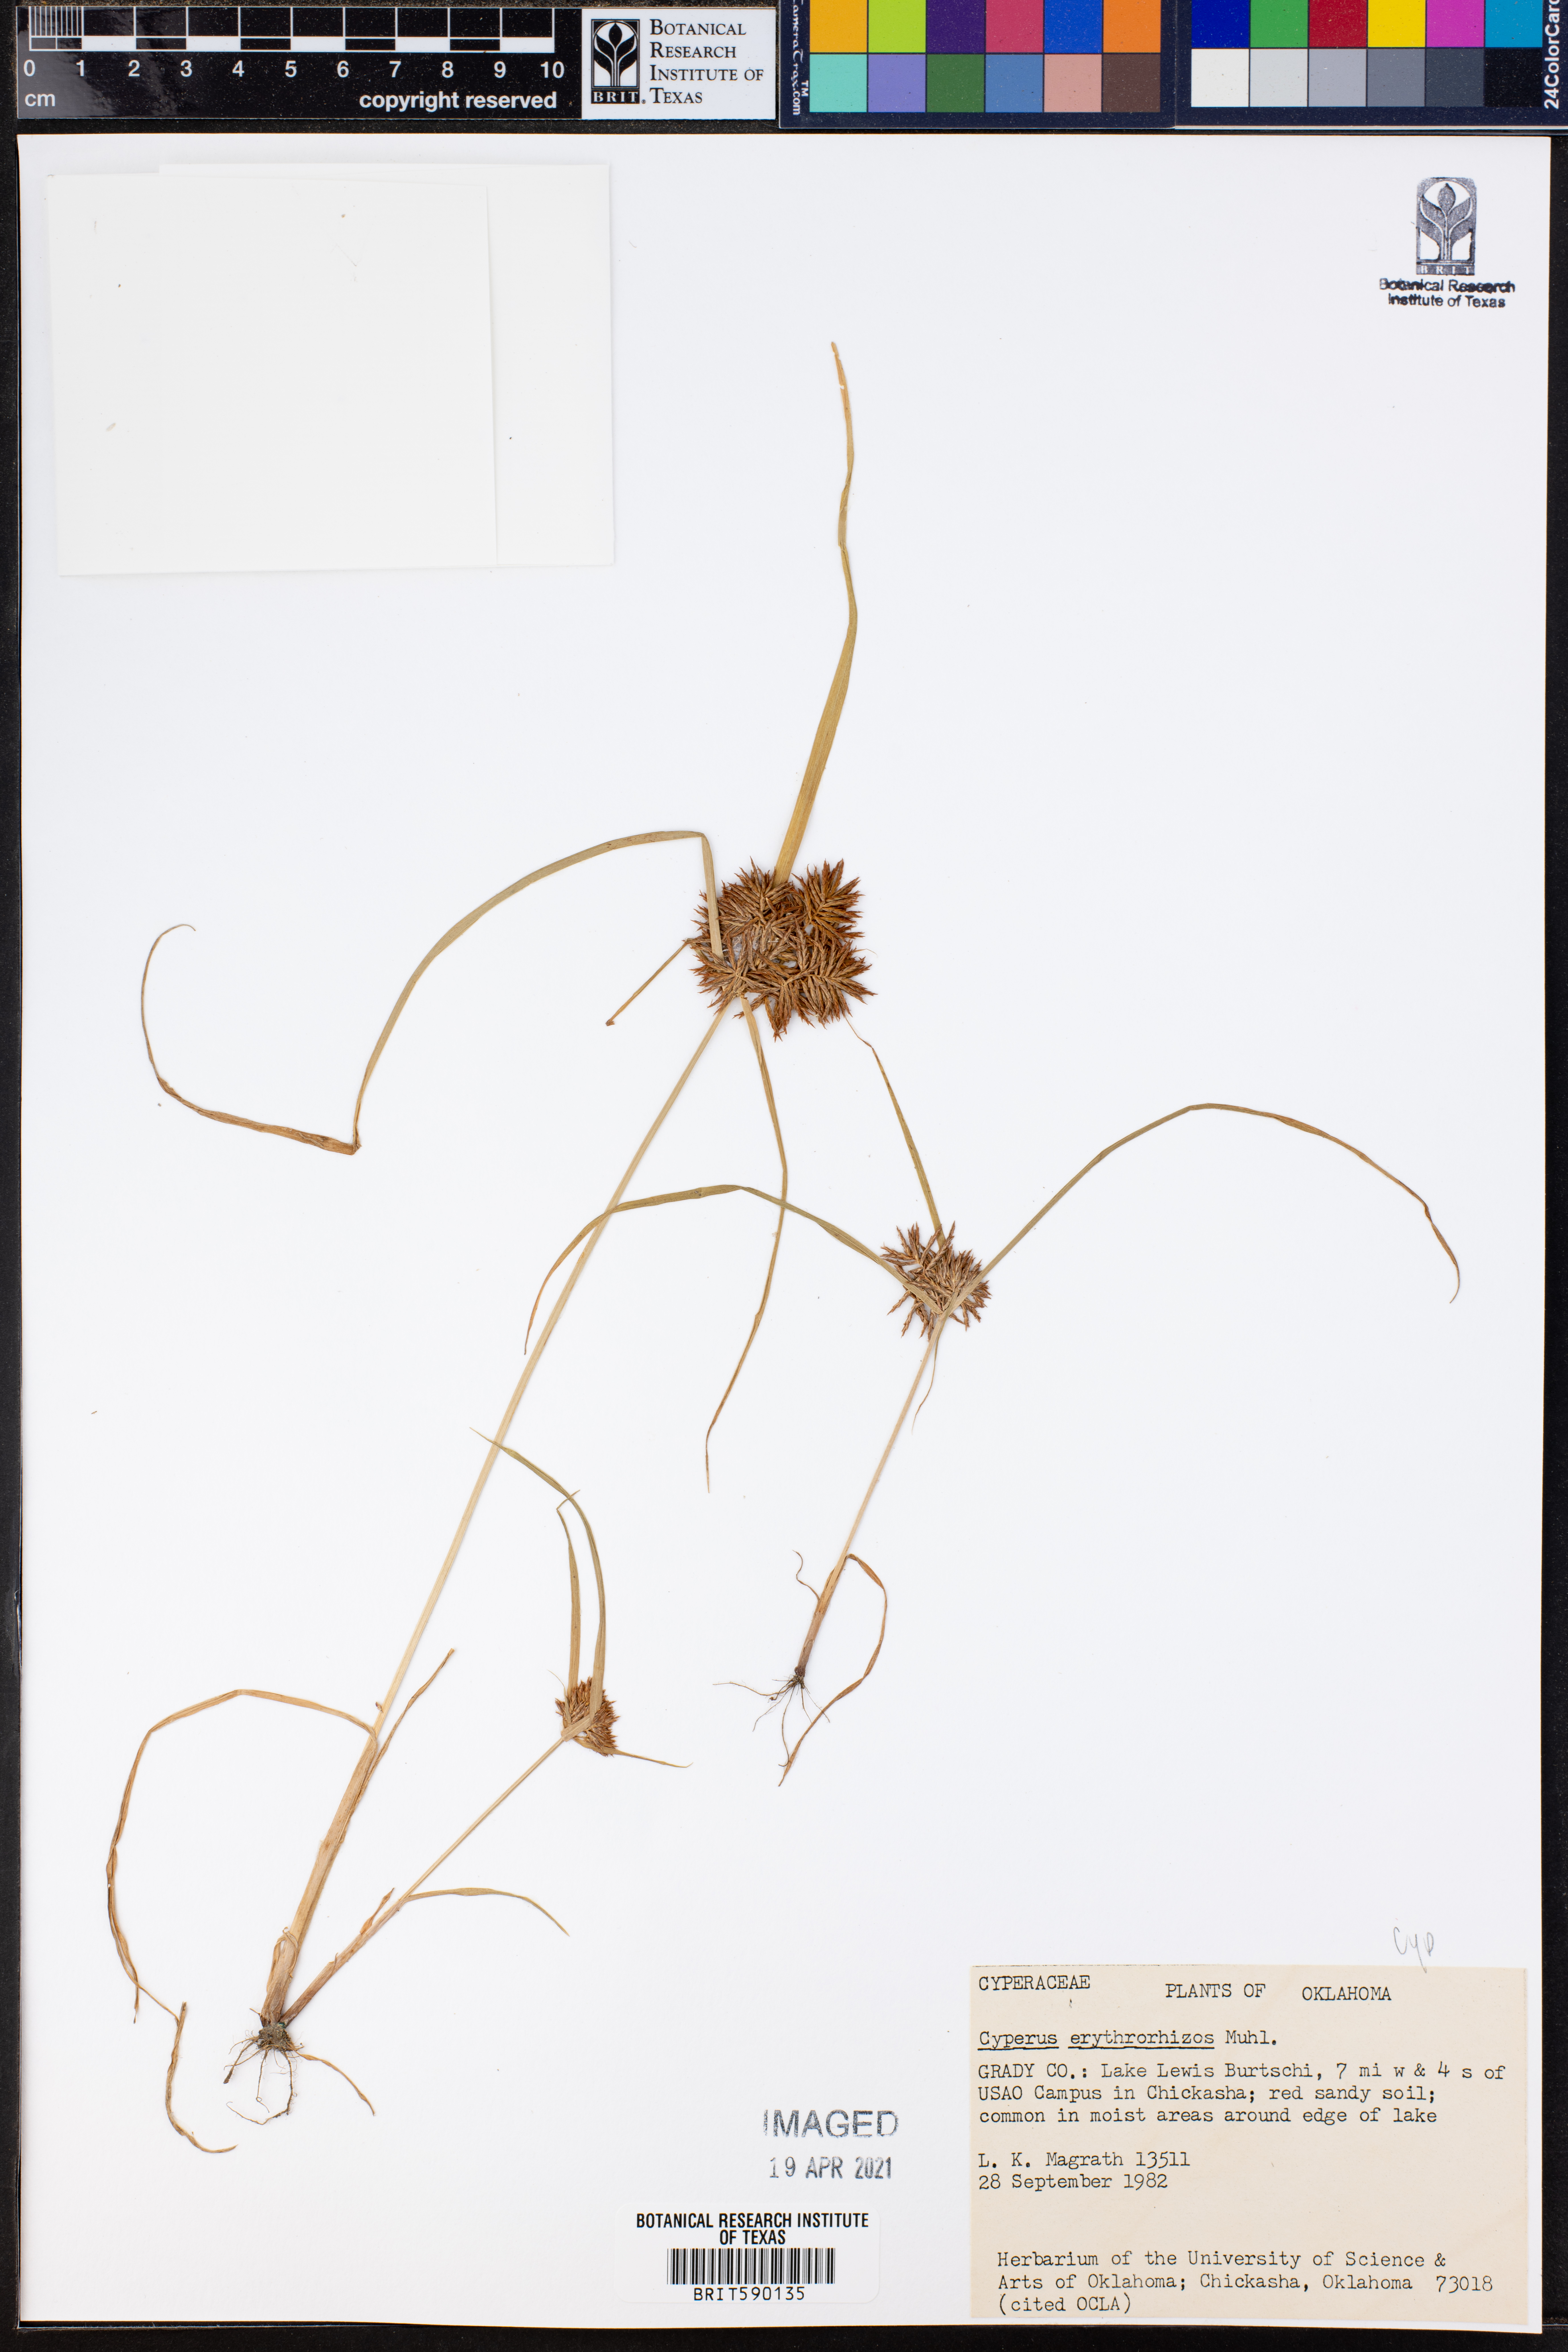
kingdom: Plantae
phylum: Tracheophyta
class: Liliopsida
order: Poales
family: Cyperaceae
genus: Cyperus
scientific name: Cyperus erythrorhizos
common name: Red-root flat sedge
